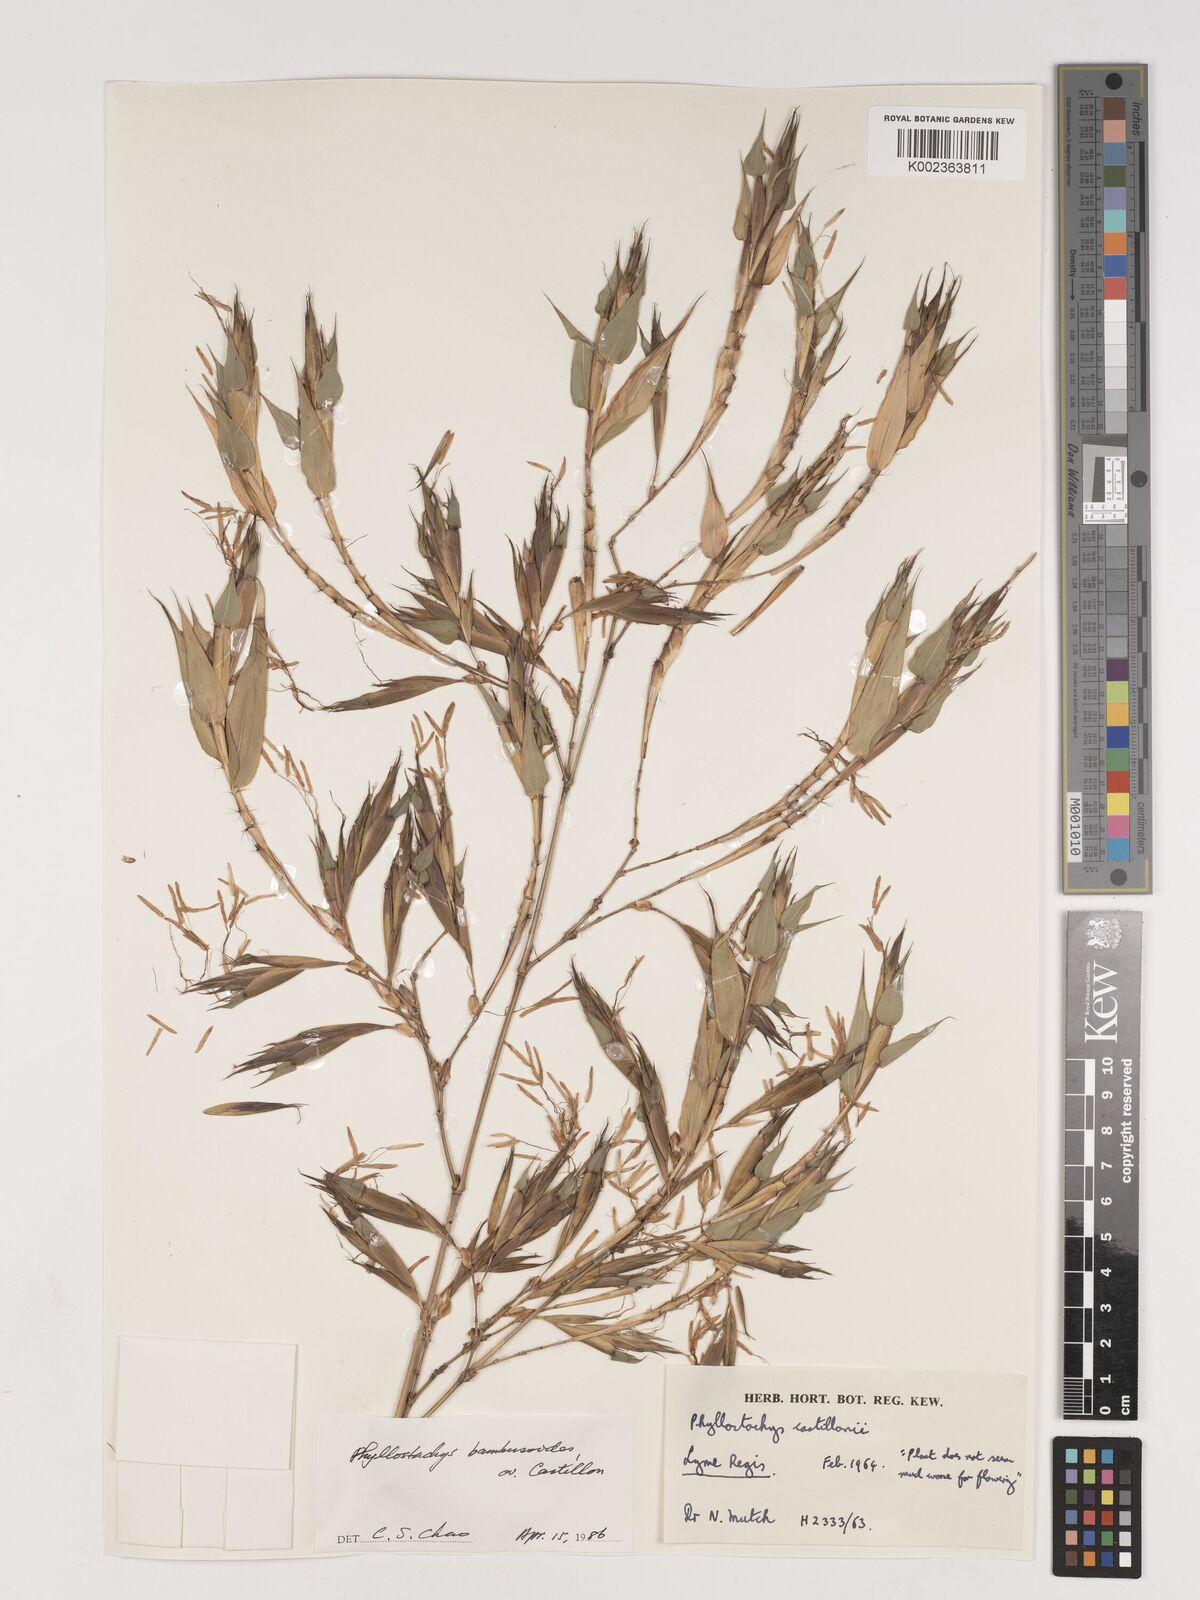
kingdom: Plantae
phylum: Tracheophyta
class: Liliopsida
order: Poales
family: Poaceae
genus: Phyllostachys
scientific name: Phyllostachys reticulata
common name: Bamboo
